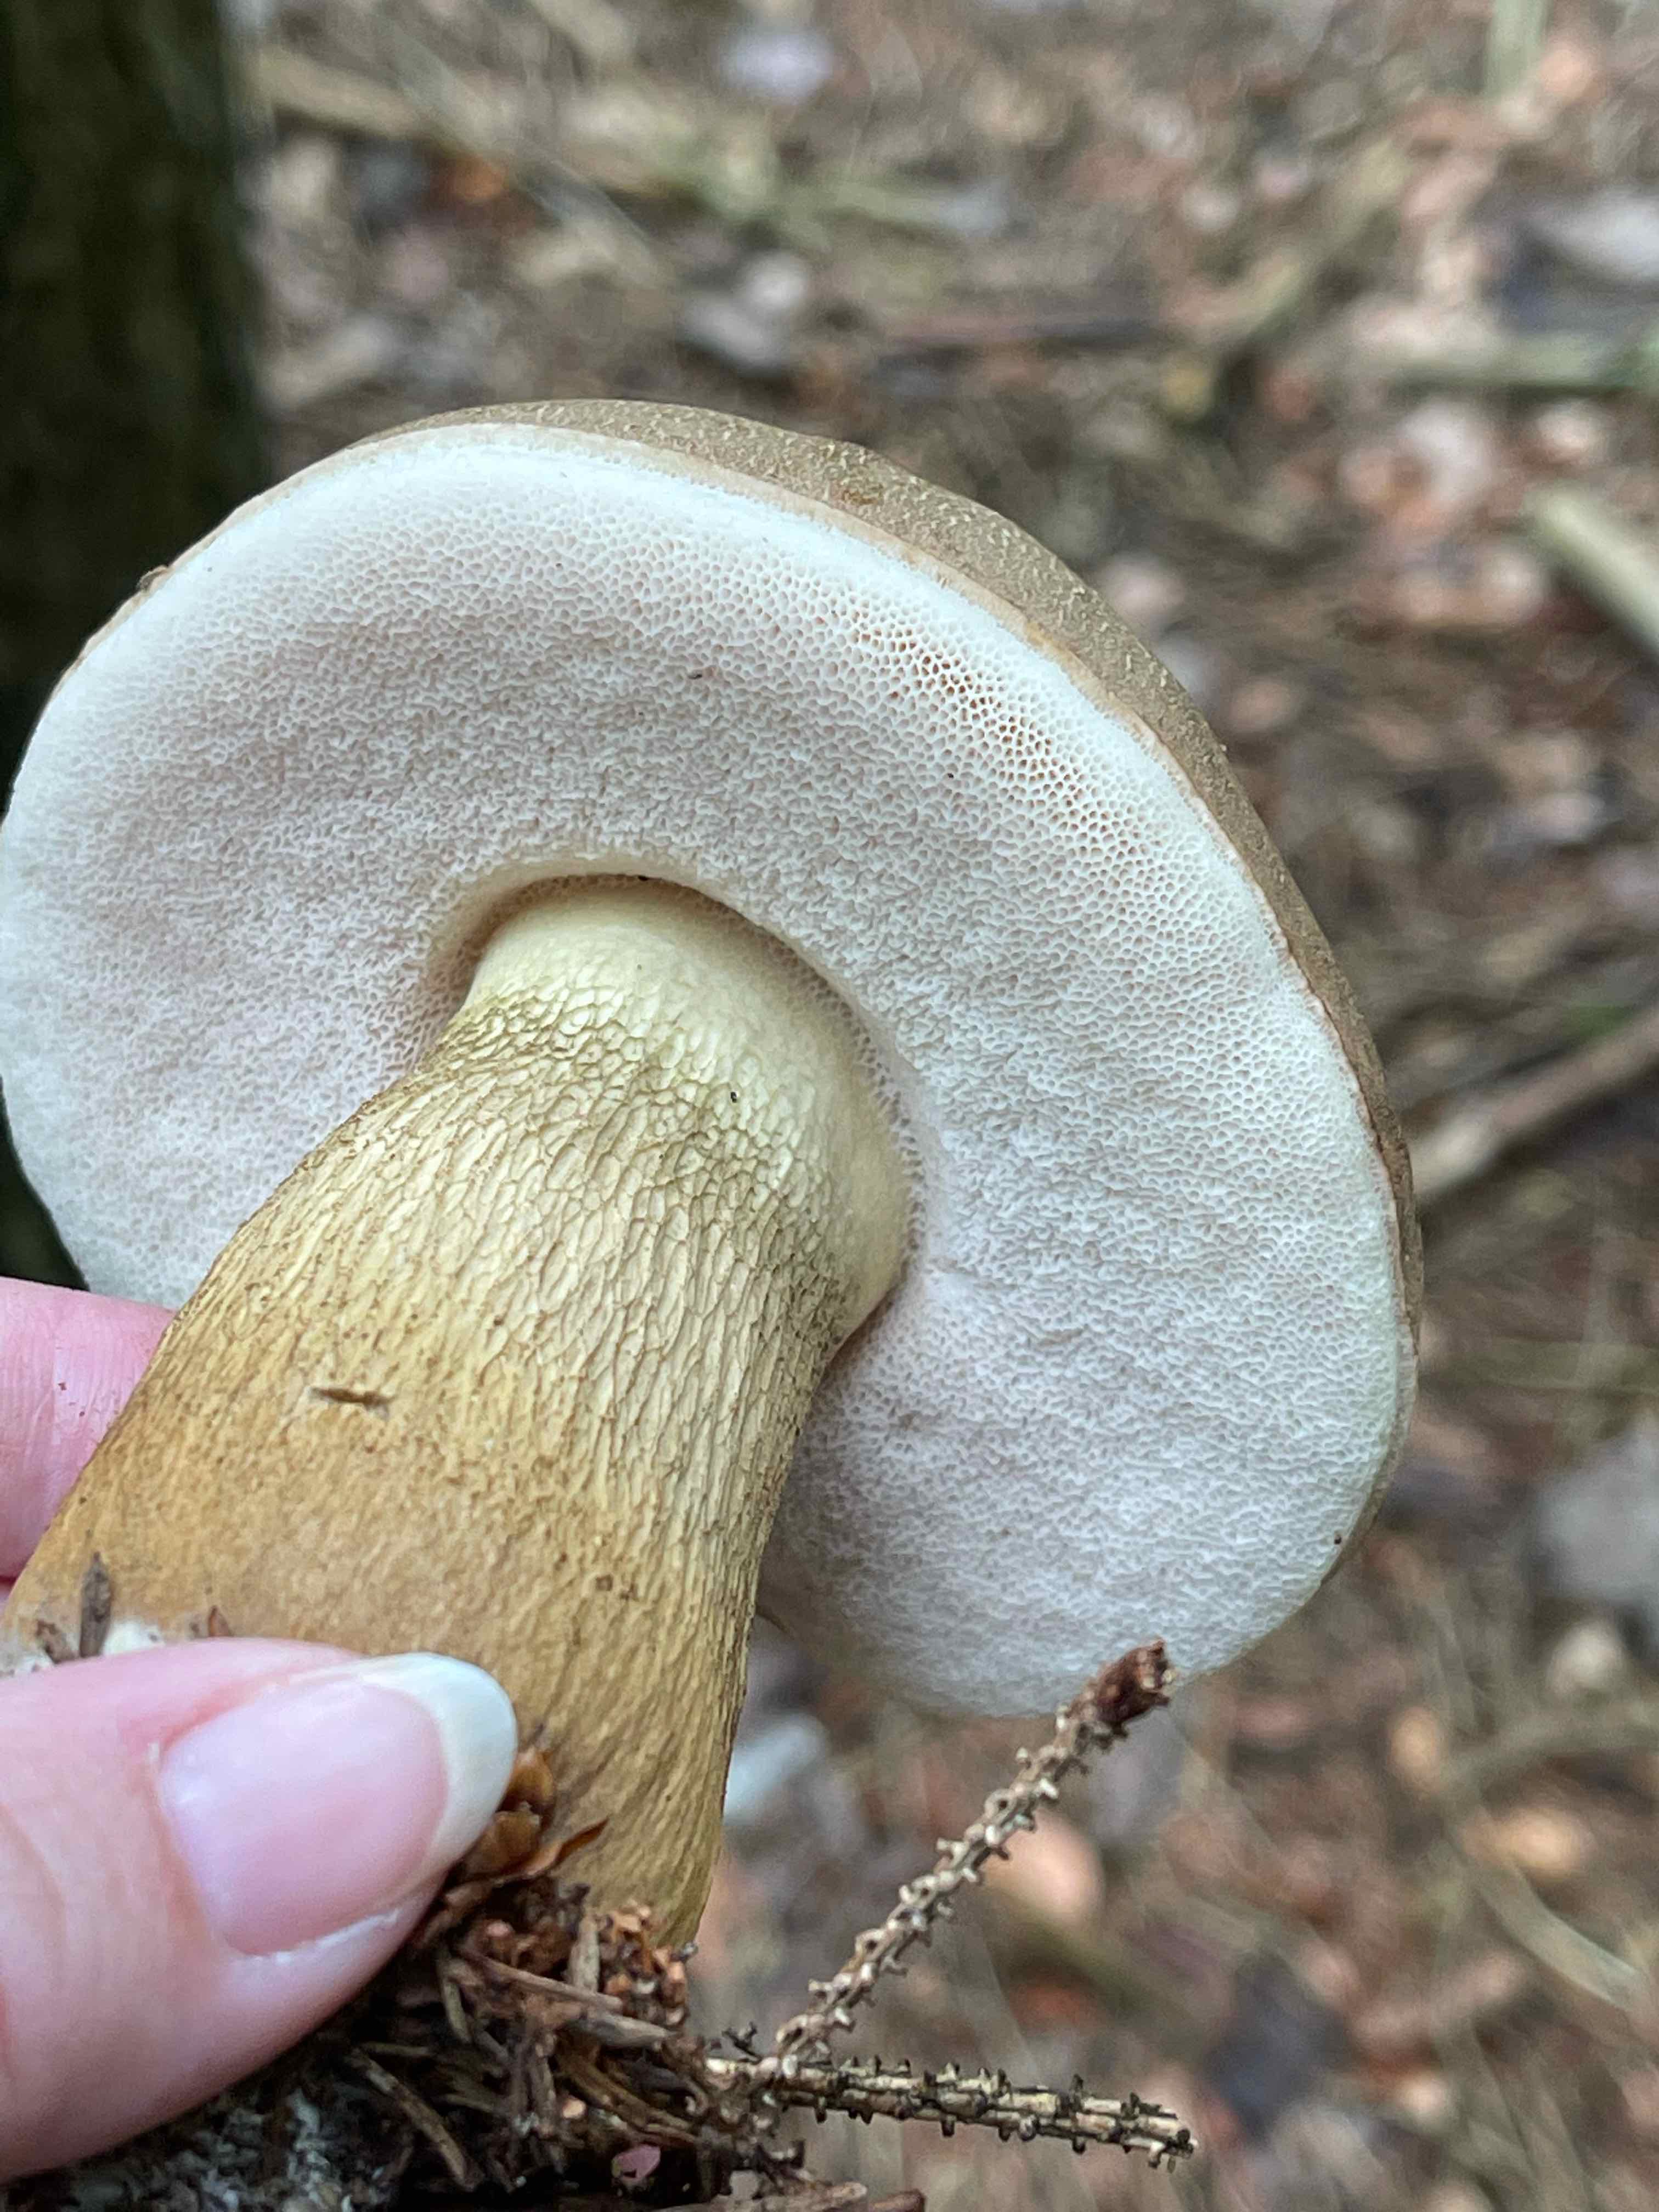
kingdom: Fungi
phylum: Basidiomycota
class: Agaricomycetes
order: Boletales
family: Boletaceae
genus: Tylopilus
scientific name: Tylopilus felleus
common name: galderørhat
